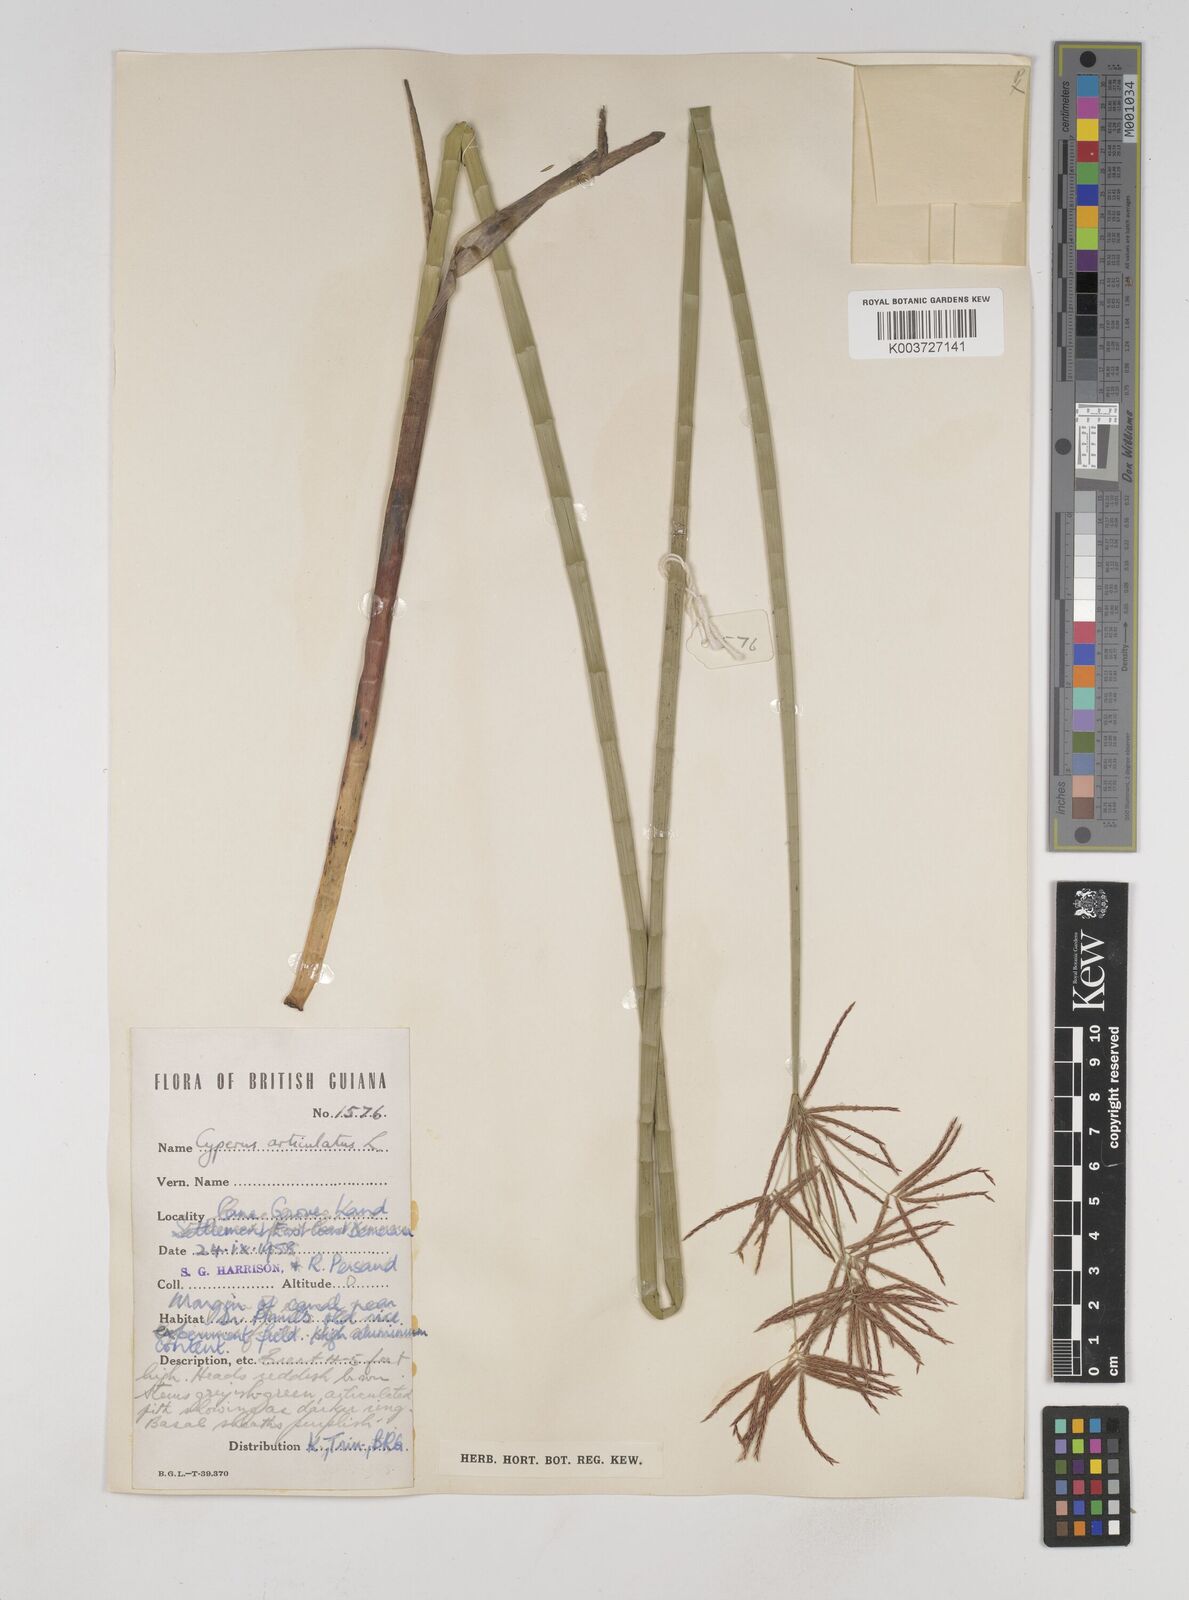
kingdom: Plantae
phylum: Tracheophyta
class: Liliopsida
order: Poales
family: Cyperaceae
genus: Cyperus
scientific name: Cyperus articulatus
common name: Jointed flatsedge
